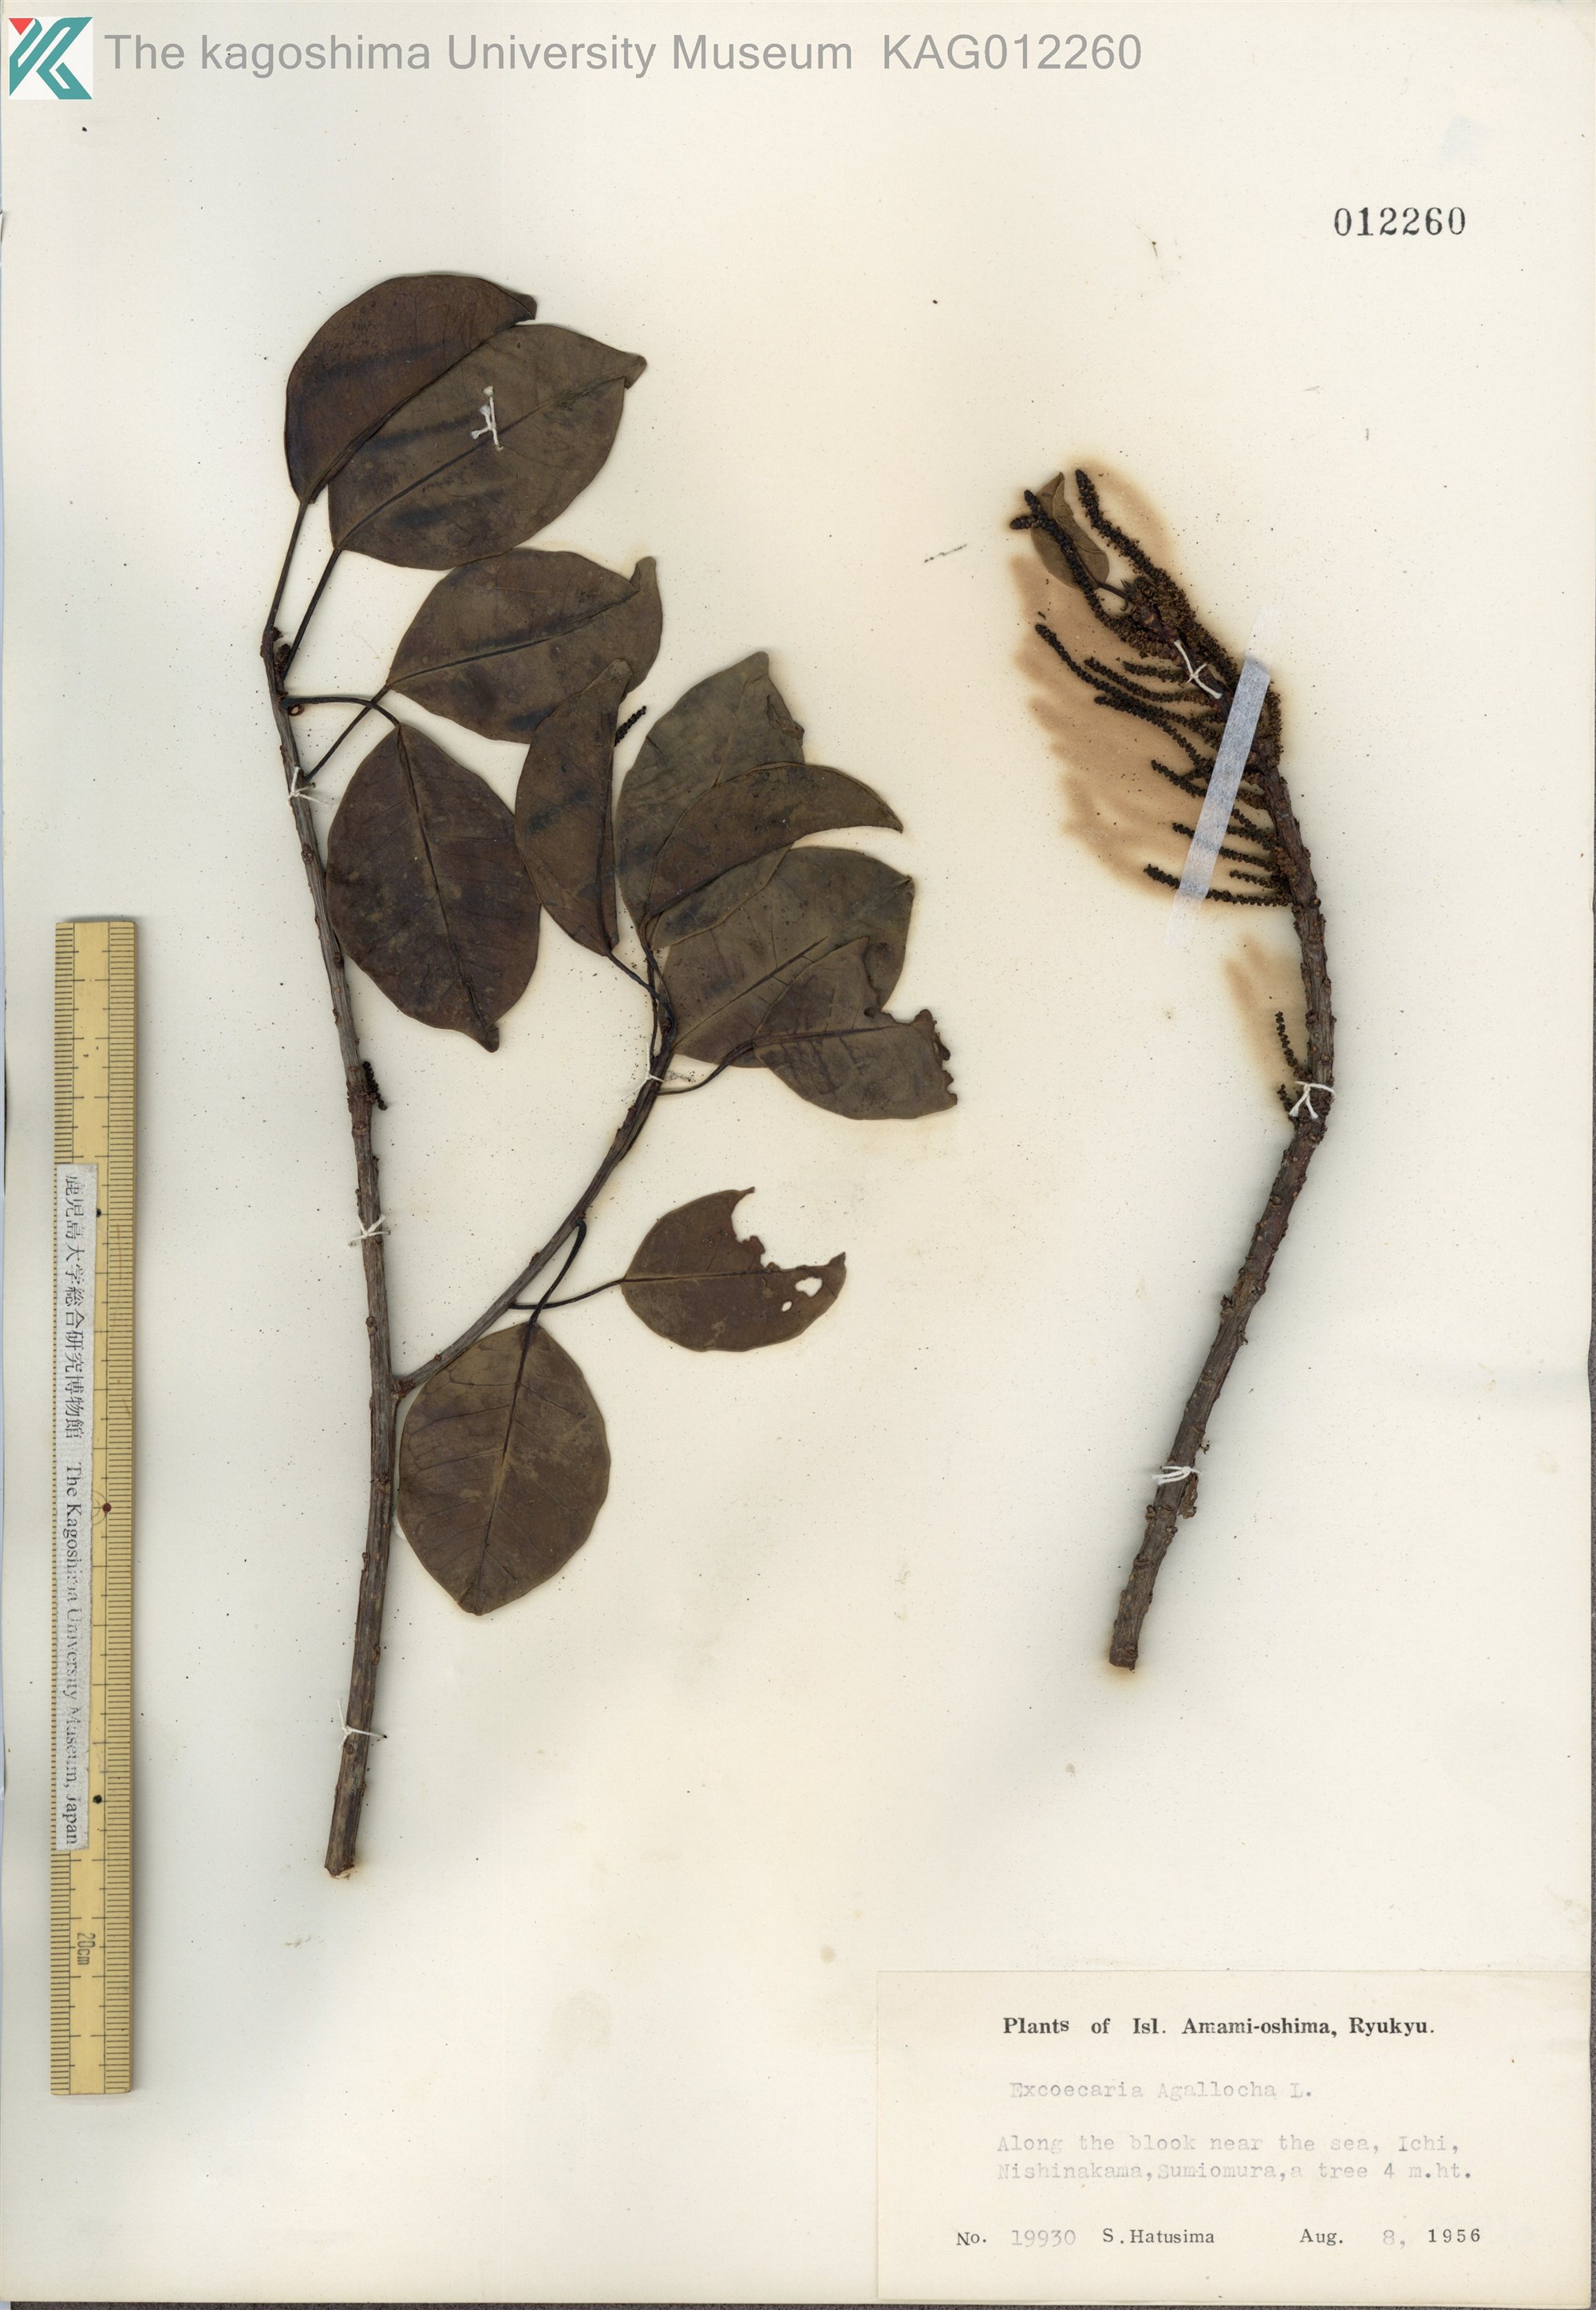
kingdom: Plantae
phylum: Tracheophyta
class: Magnoliopsida
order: Malpighiales
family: Euphorbiaceae
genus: Excoecaria
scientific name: Excoecaria agallocha
